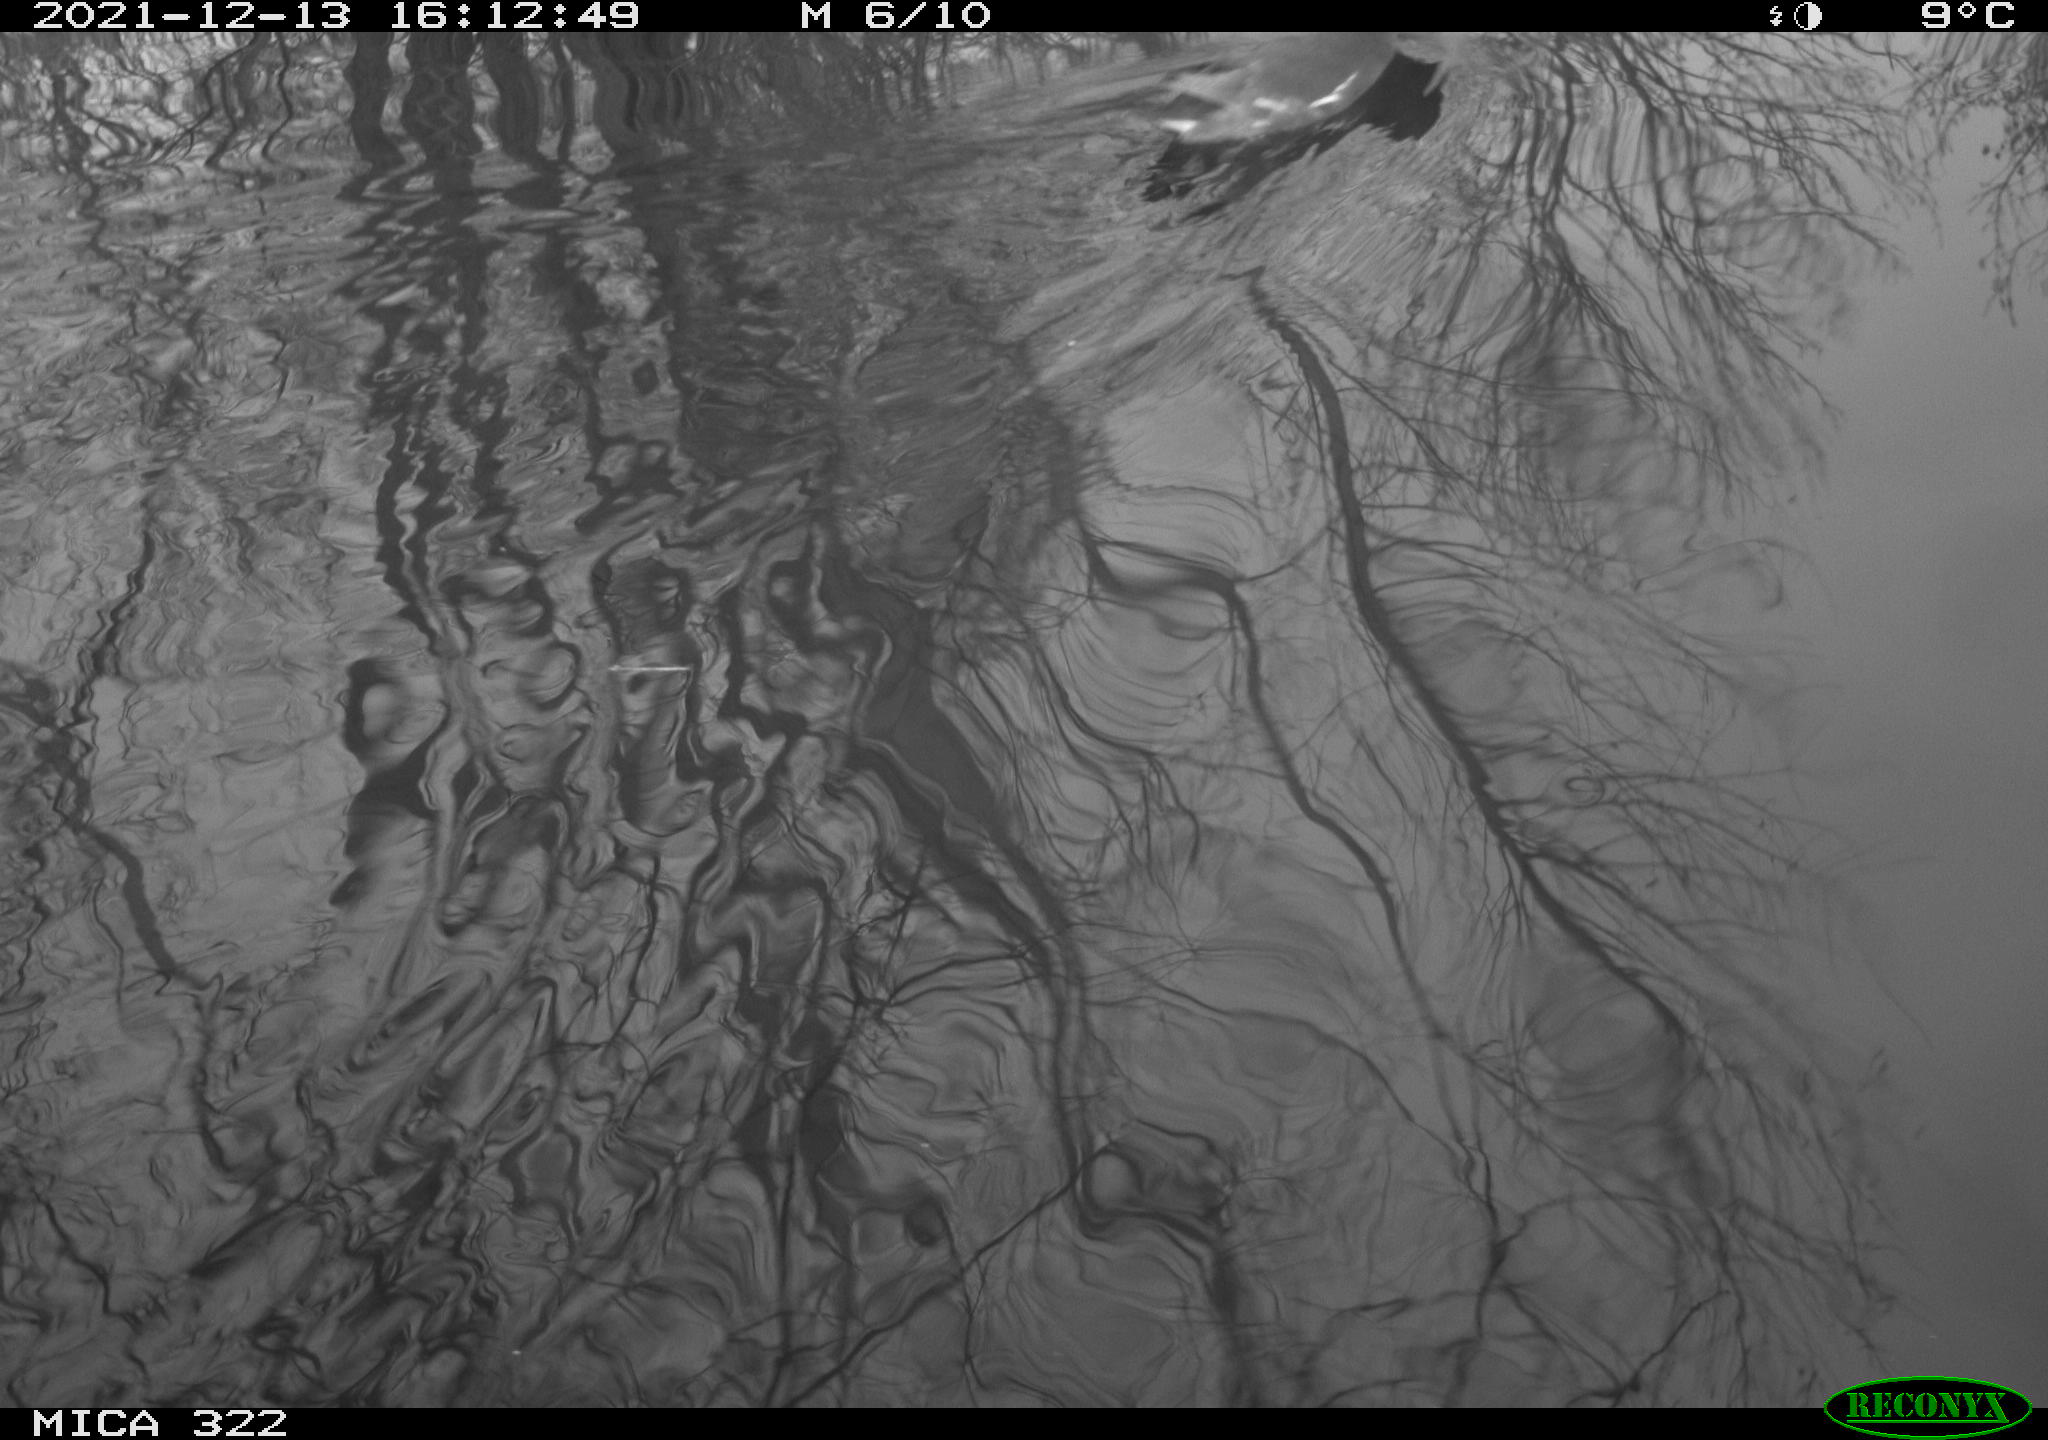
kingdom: Animalia
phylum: Chordata
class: Aves
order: Gruiformes
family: Rallidae
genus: Gallinula
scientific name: Gallinula chloropus
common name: Common moorhen
